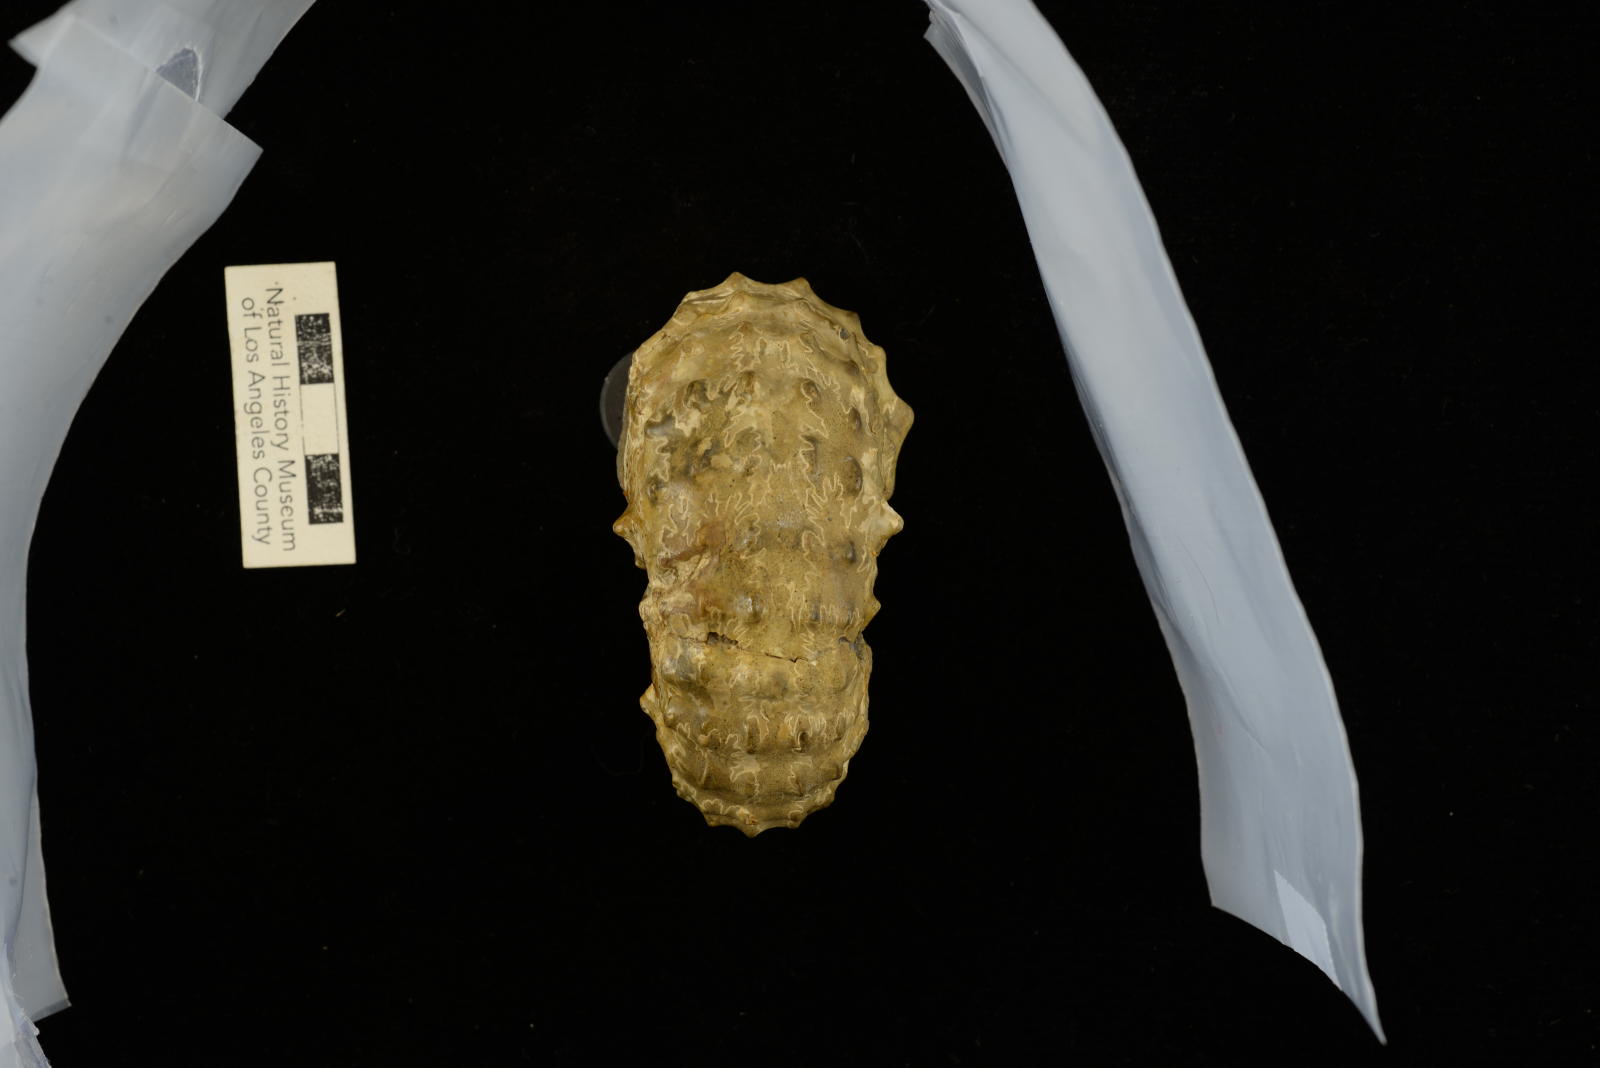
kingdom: Animalia
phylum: Mollusca
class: Cephalopoda
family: Acanthoceratidae
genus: Romaniceras
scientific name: Romaniceras
